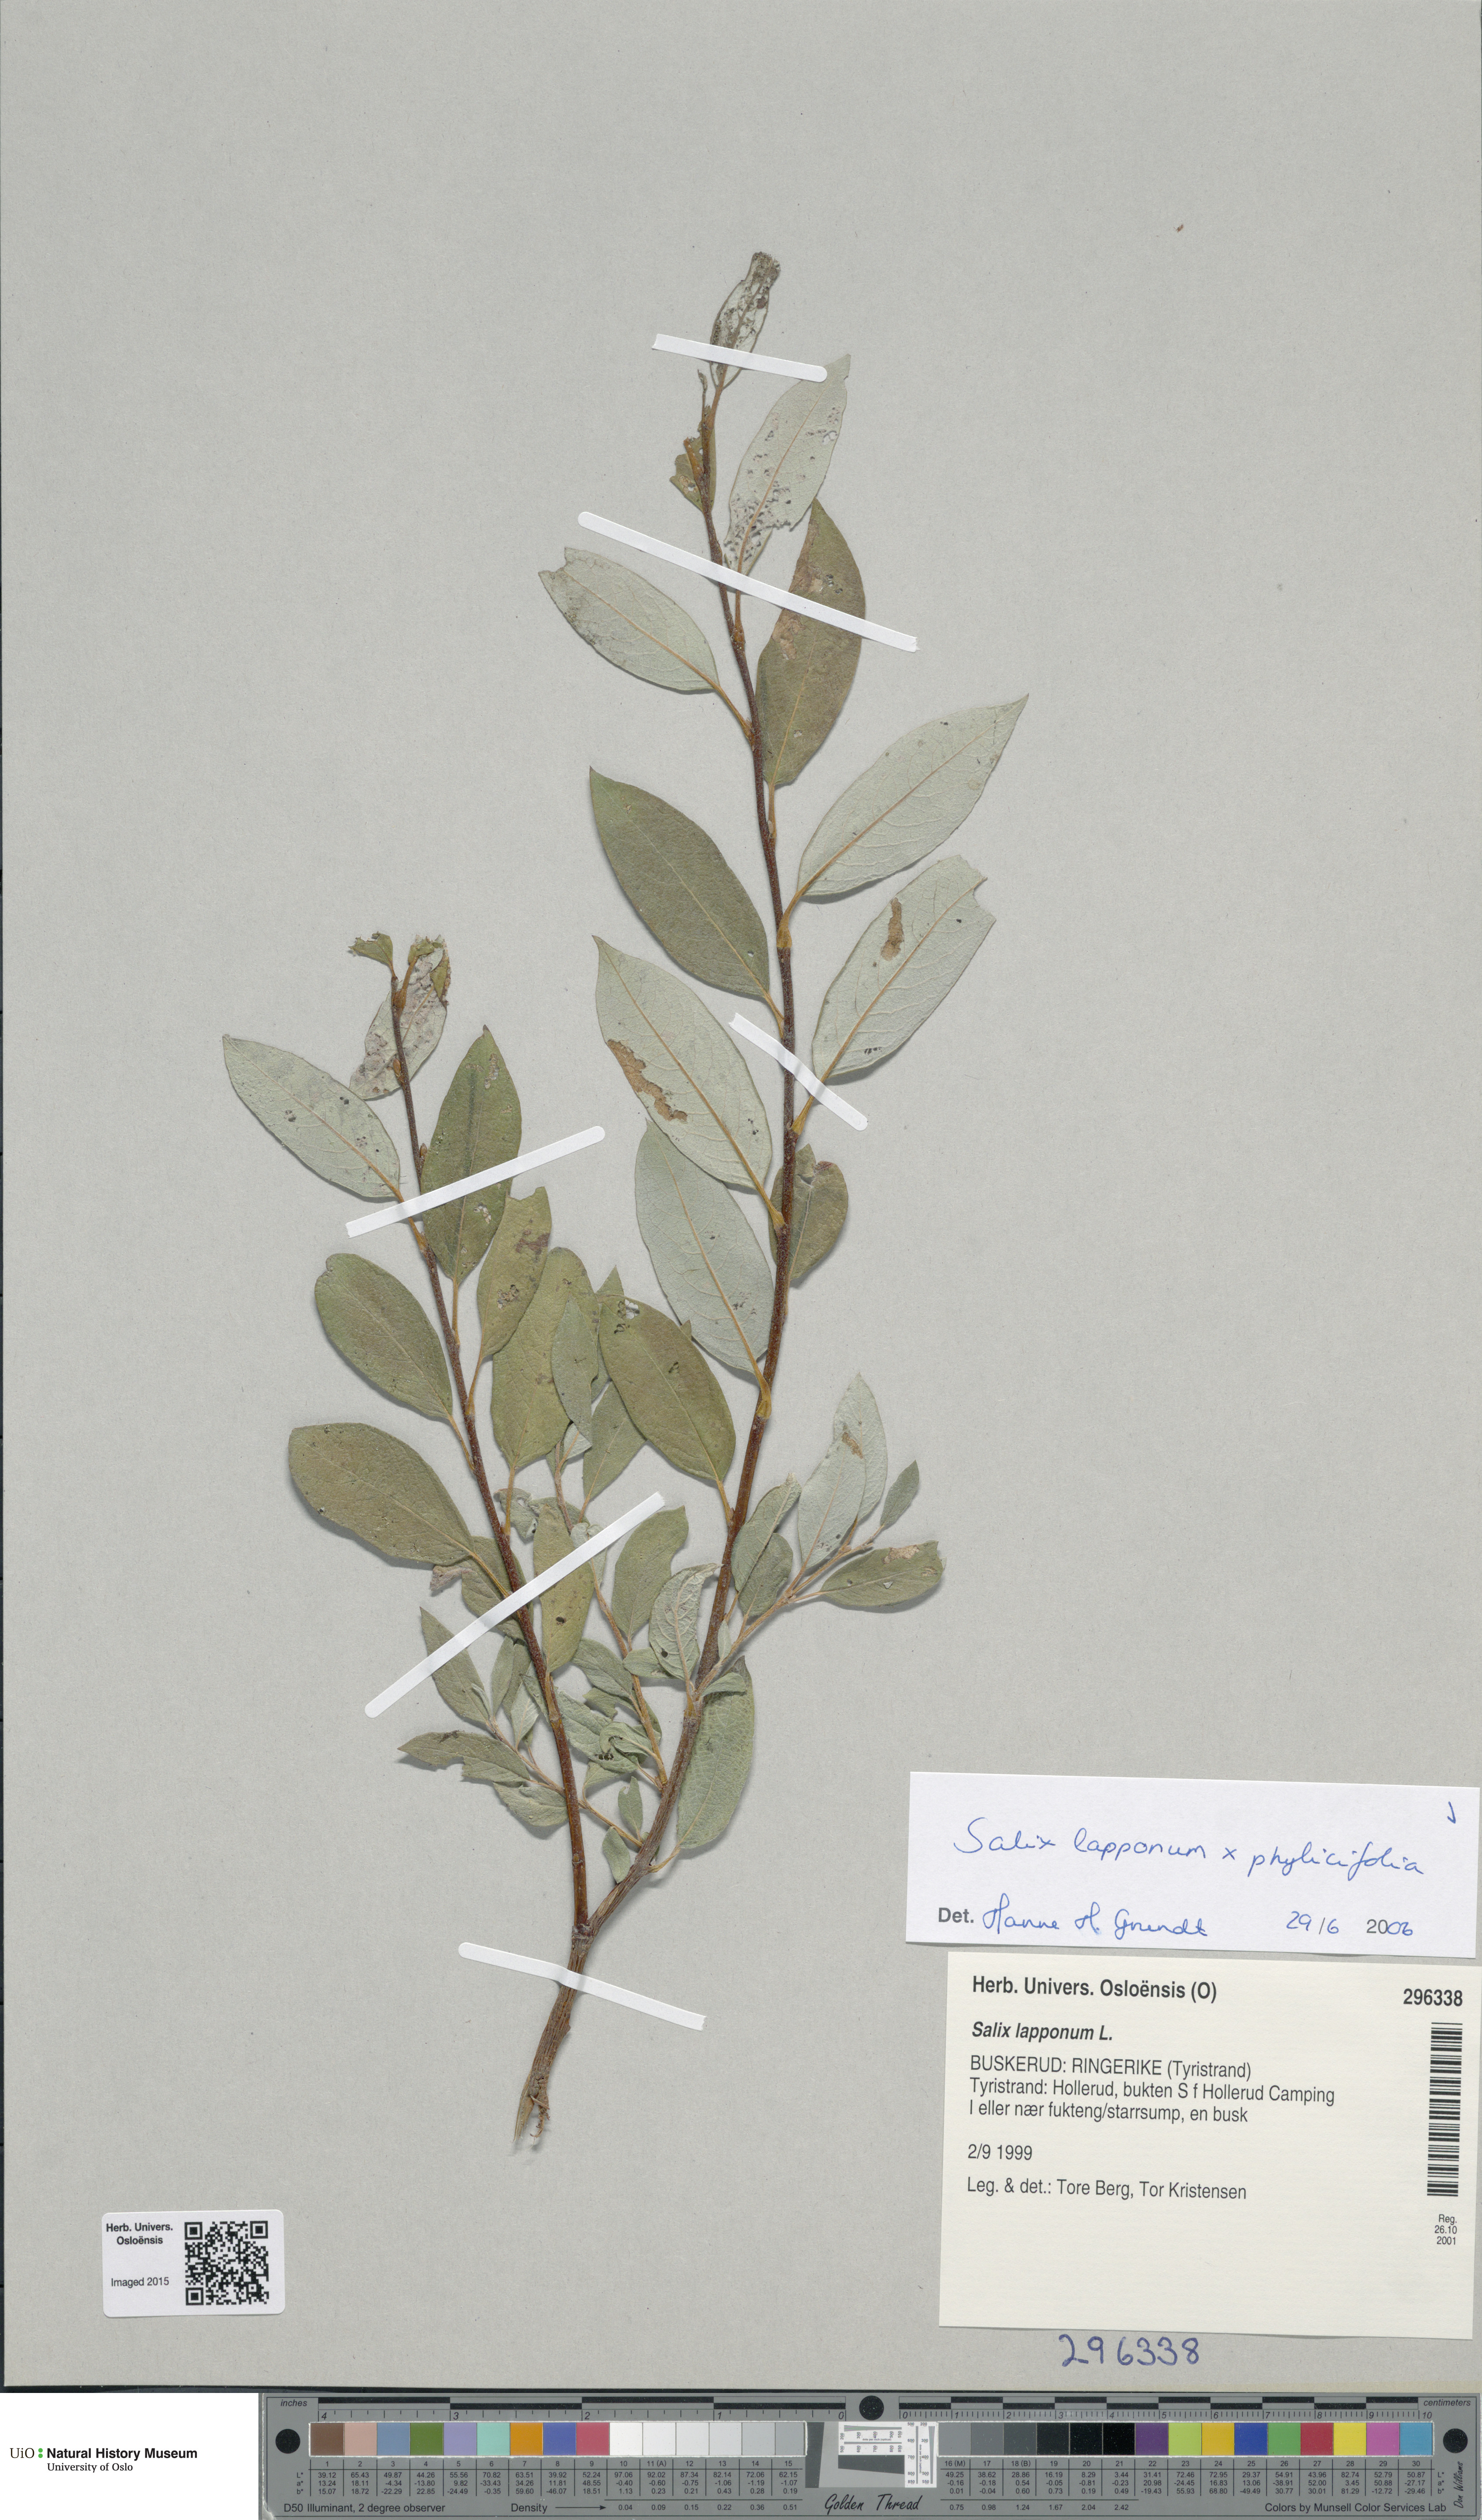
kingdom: Plantae
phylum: Tracheophyta
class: Magnoliopsida
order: Malpighiales
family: Salicaceae
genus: Salix
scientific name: Salix
